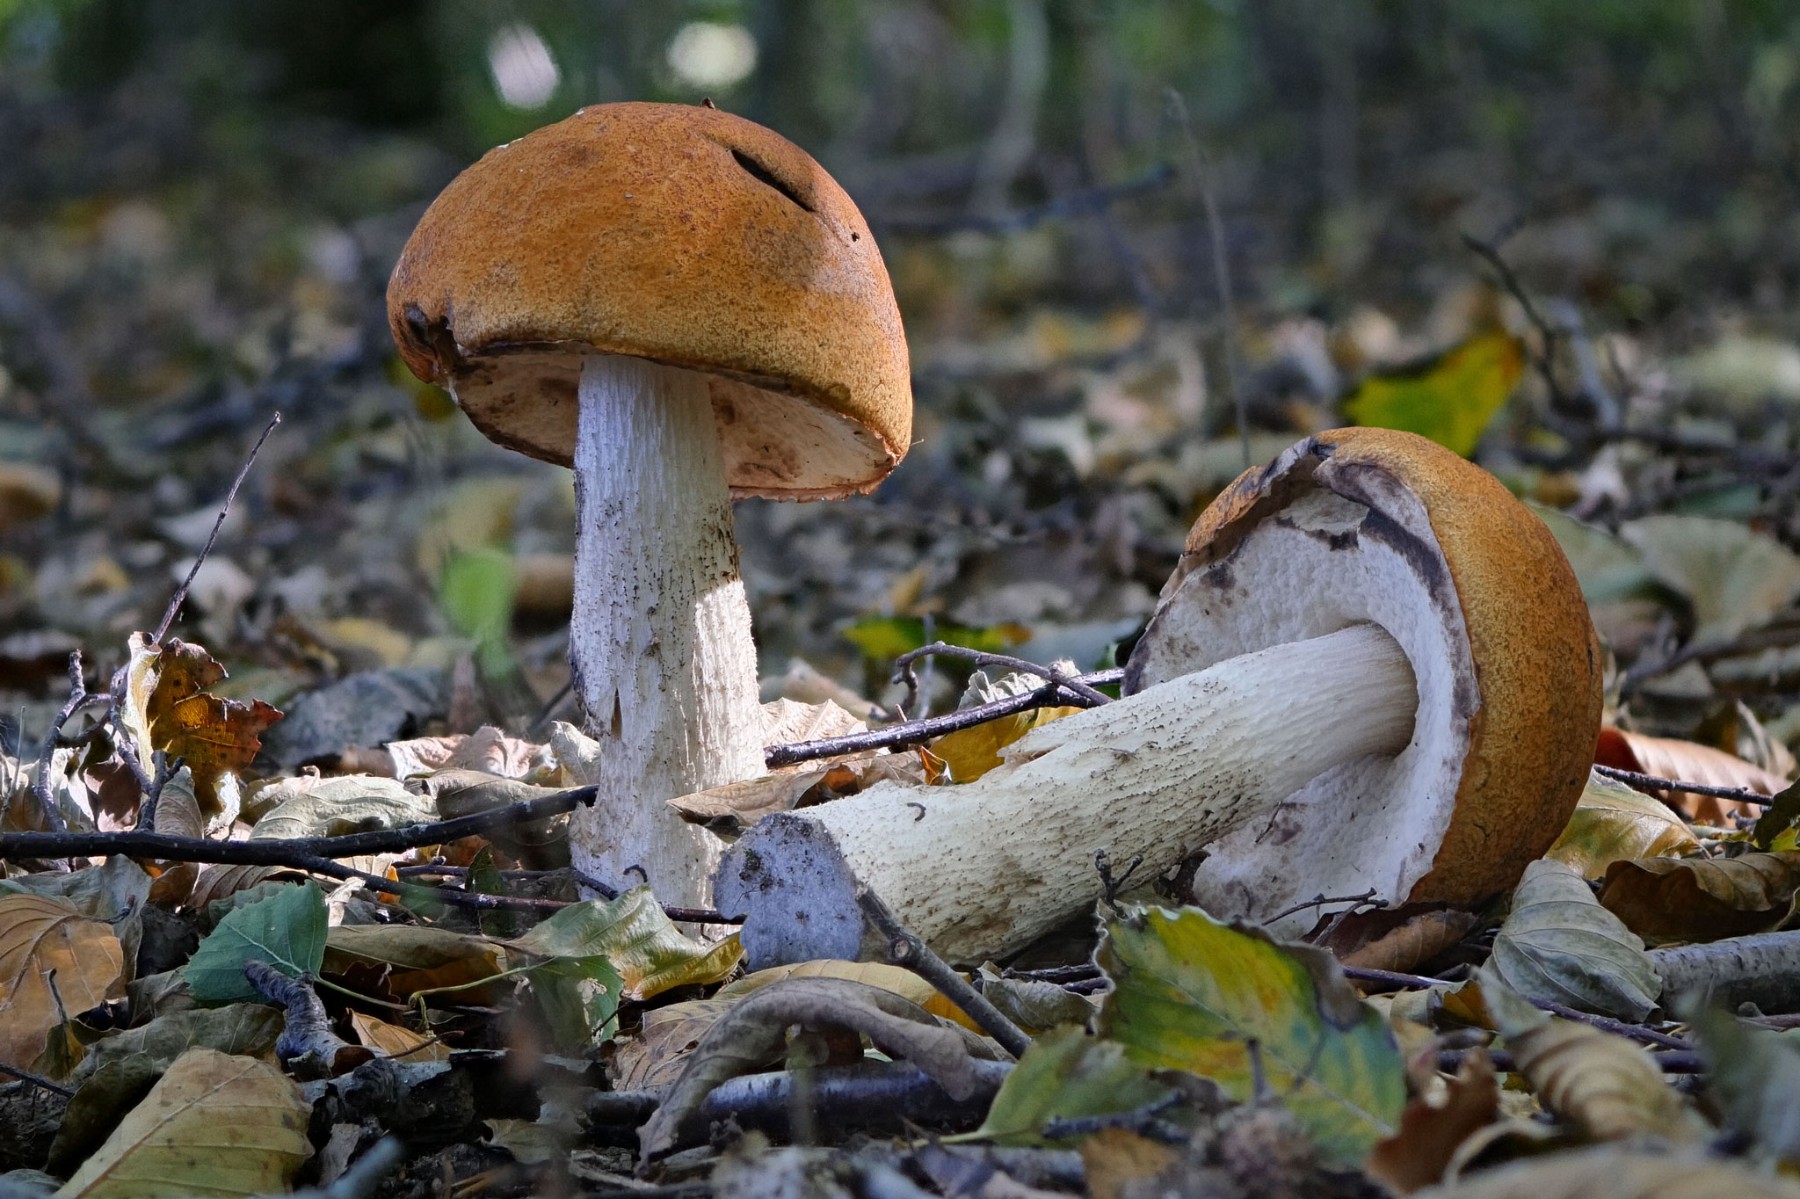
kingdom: Fungi
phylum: Basidiomycota
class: Agaricomycetes
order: Boletales
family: Boletaceae
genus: Leccinum
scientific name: Leccinum albostipitatum
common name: aspe-skælrørhat
